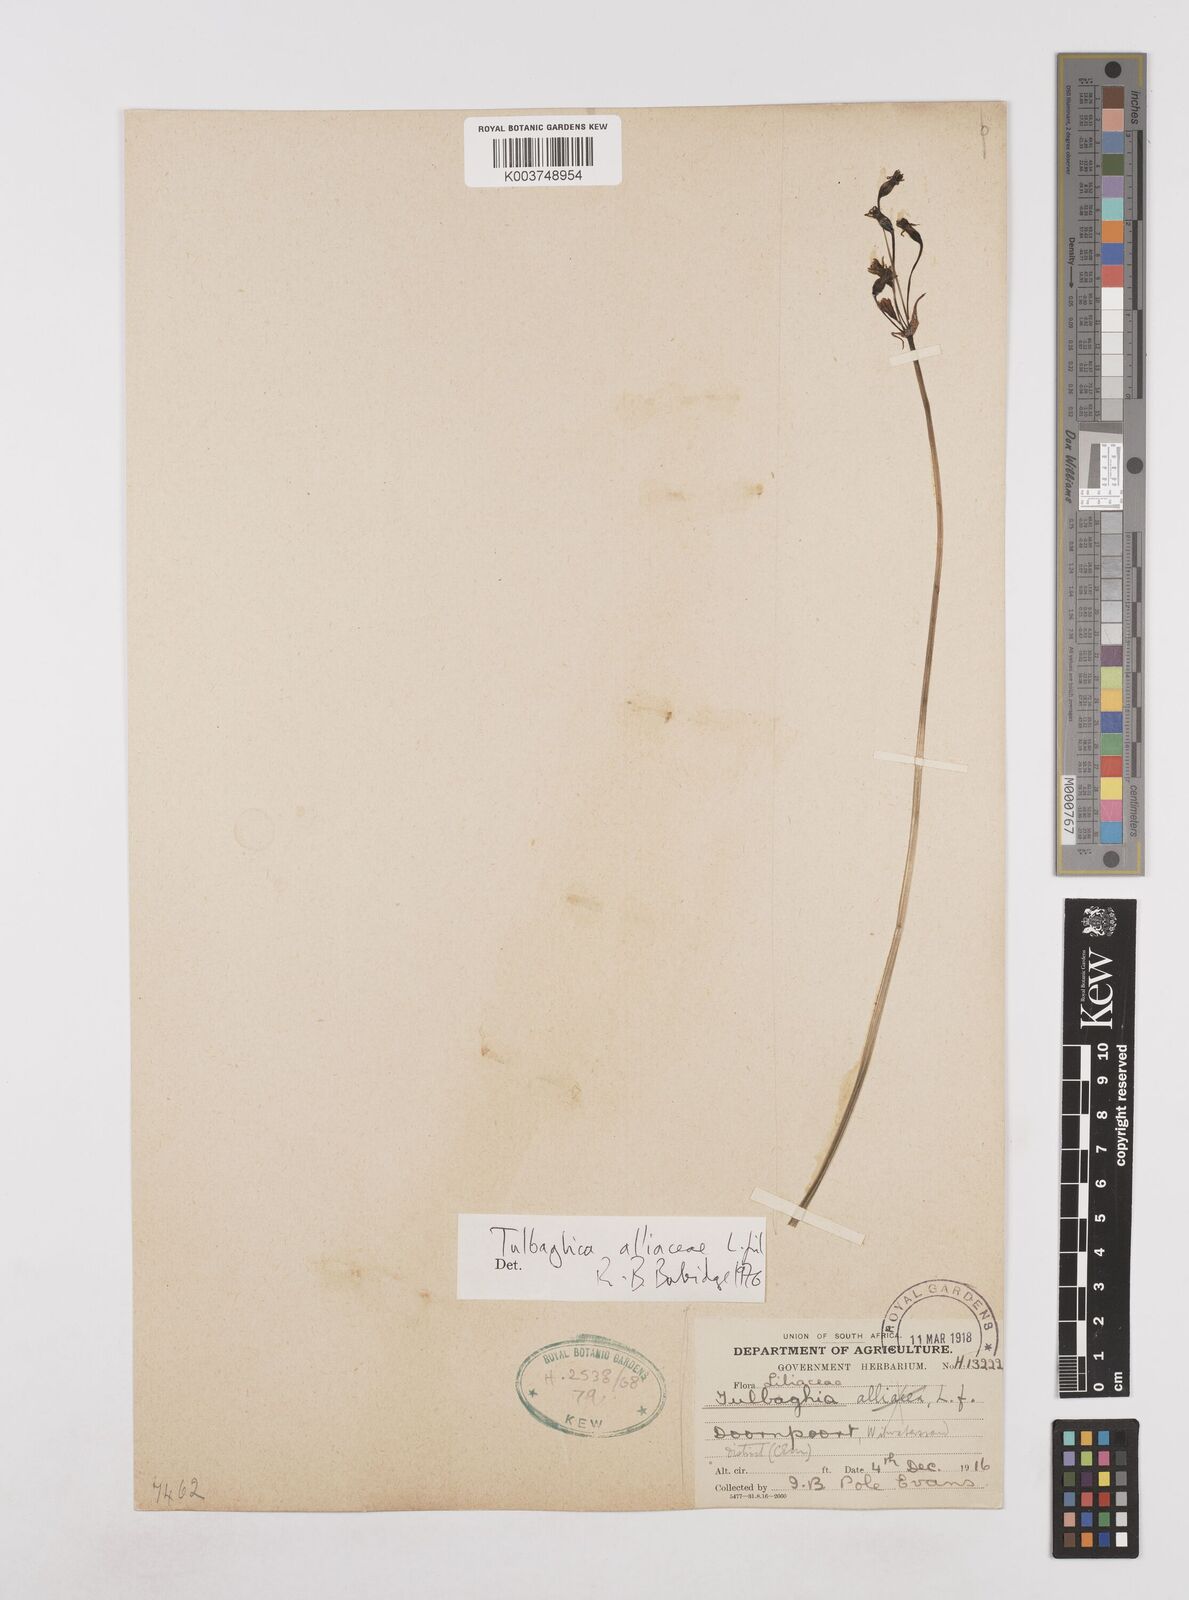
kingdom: Plantae
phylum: Tracheophyta
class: Liliopsida
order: Asparagales
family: Amaryllidaceae
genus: Tulbaghia
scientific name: Tulbaghia alliacea
